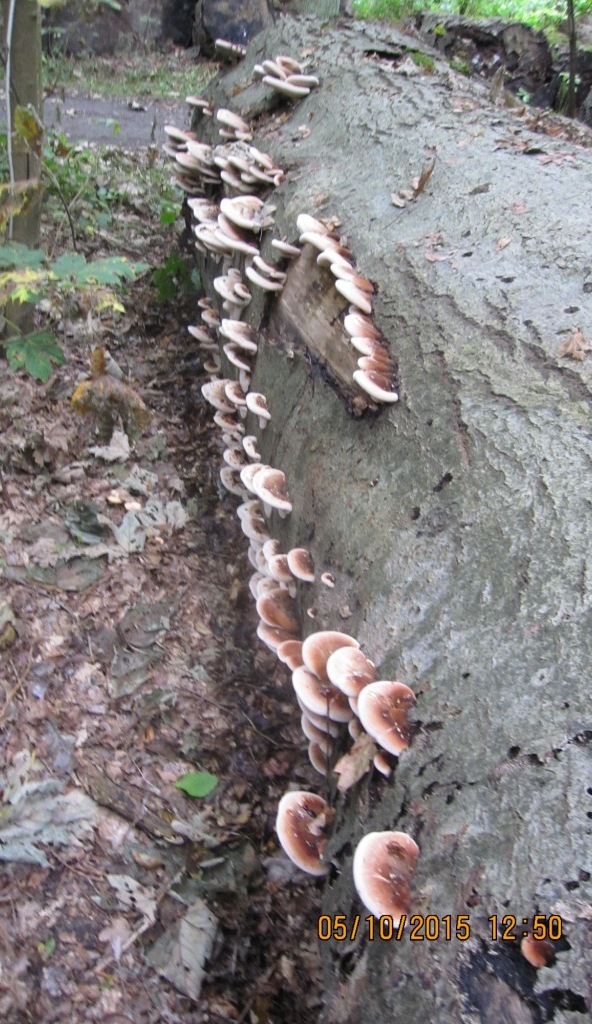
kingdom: Fungi
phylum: Basidiomycota
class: Agaricomycetes
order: Polyporales
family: Ischnodermataceae
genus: Ischnoderma
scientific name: Ischnoderma resinosum
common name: løv-tjæreporesvamp
